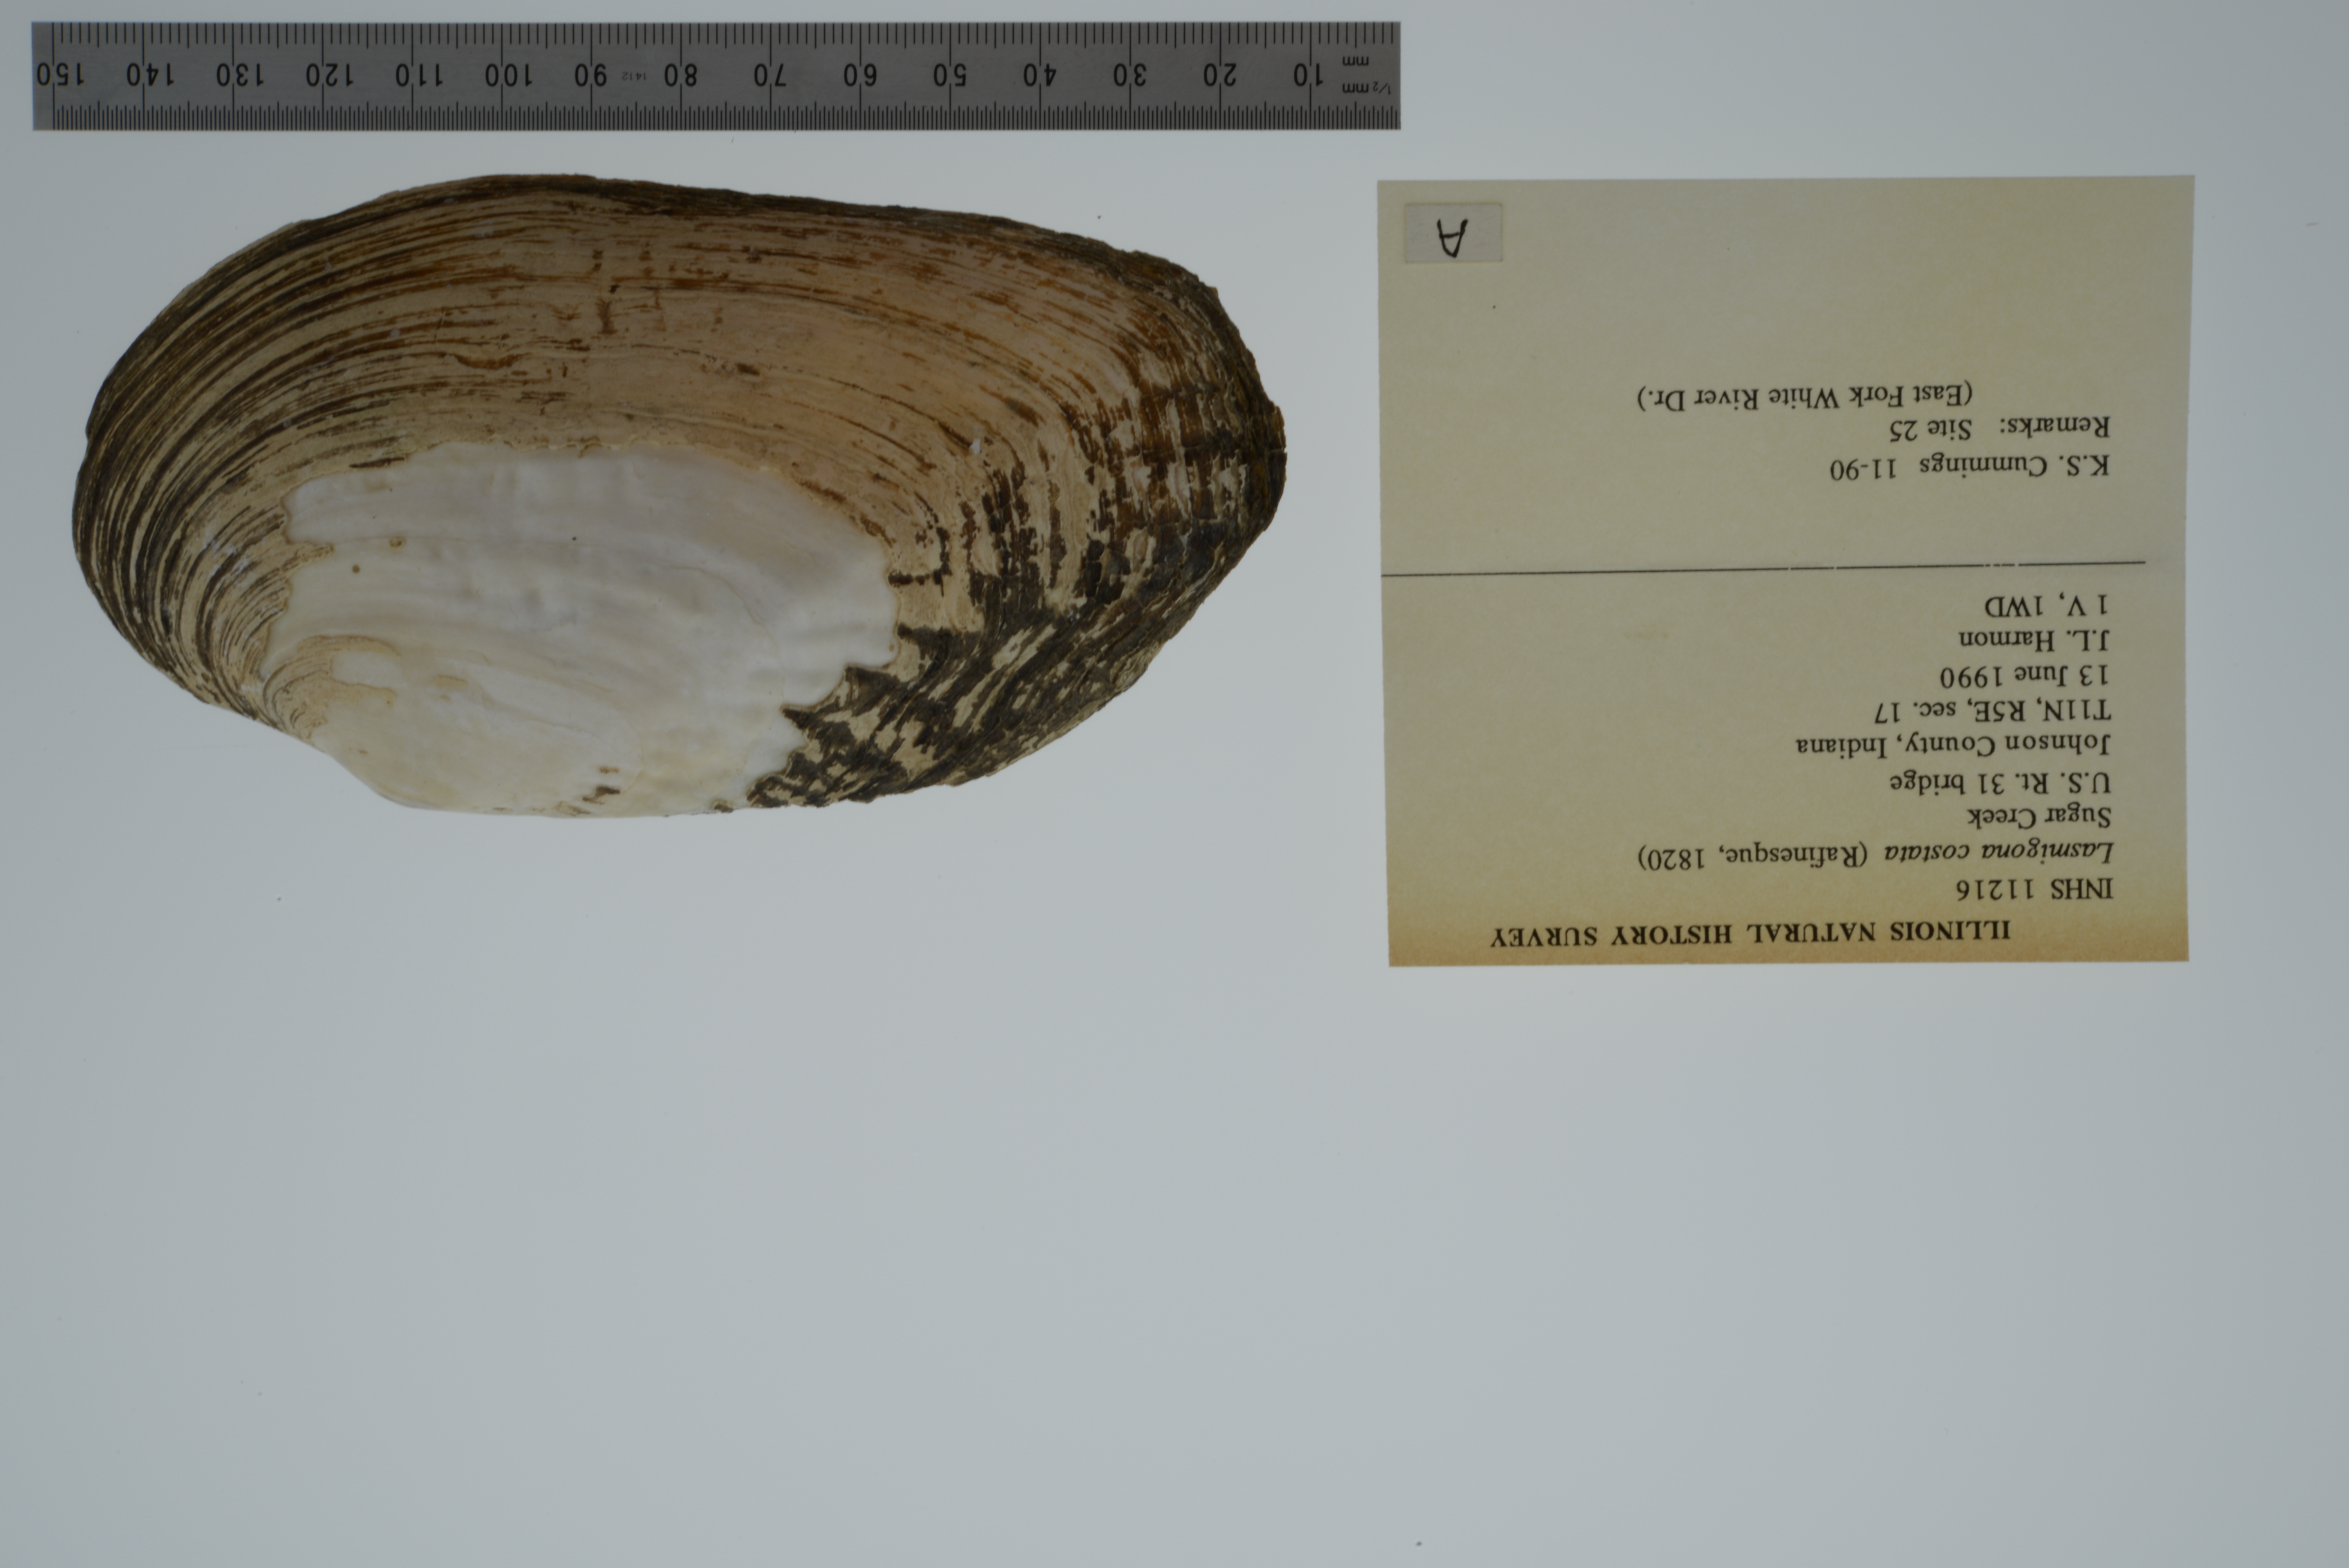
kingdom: Animalia
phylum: Mollusca
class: Bivalvia
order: Unionida
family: Unionidae
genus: Lasmigona
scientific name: Lasmigona costata
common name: Flutedshell
